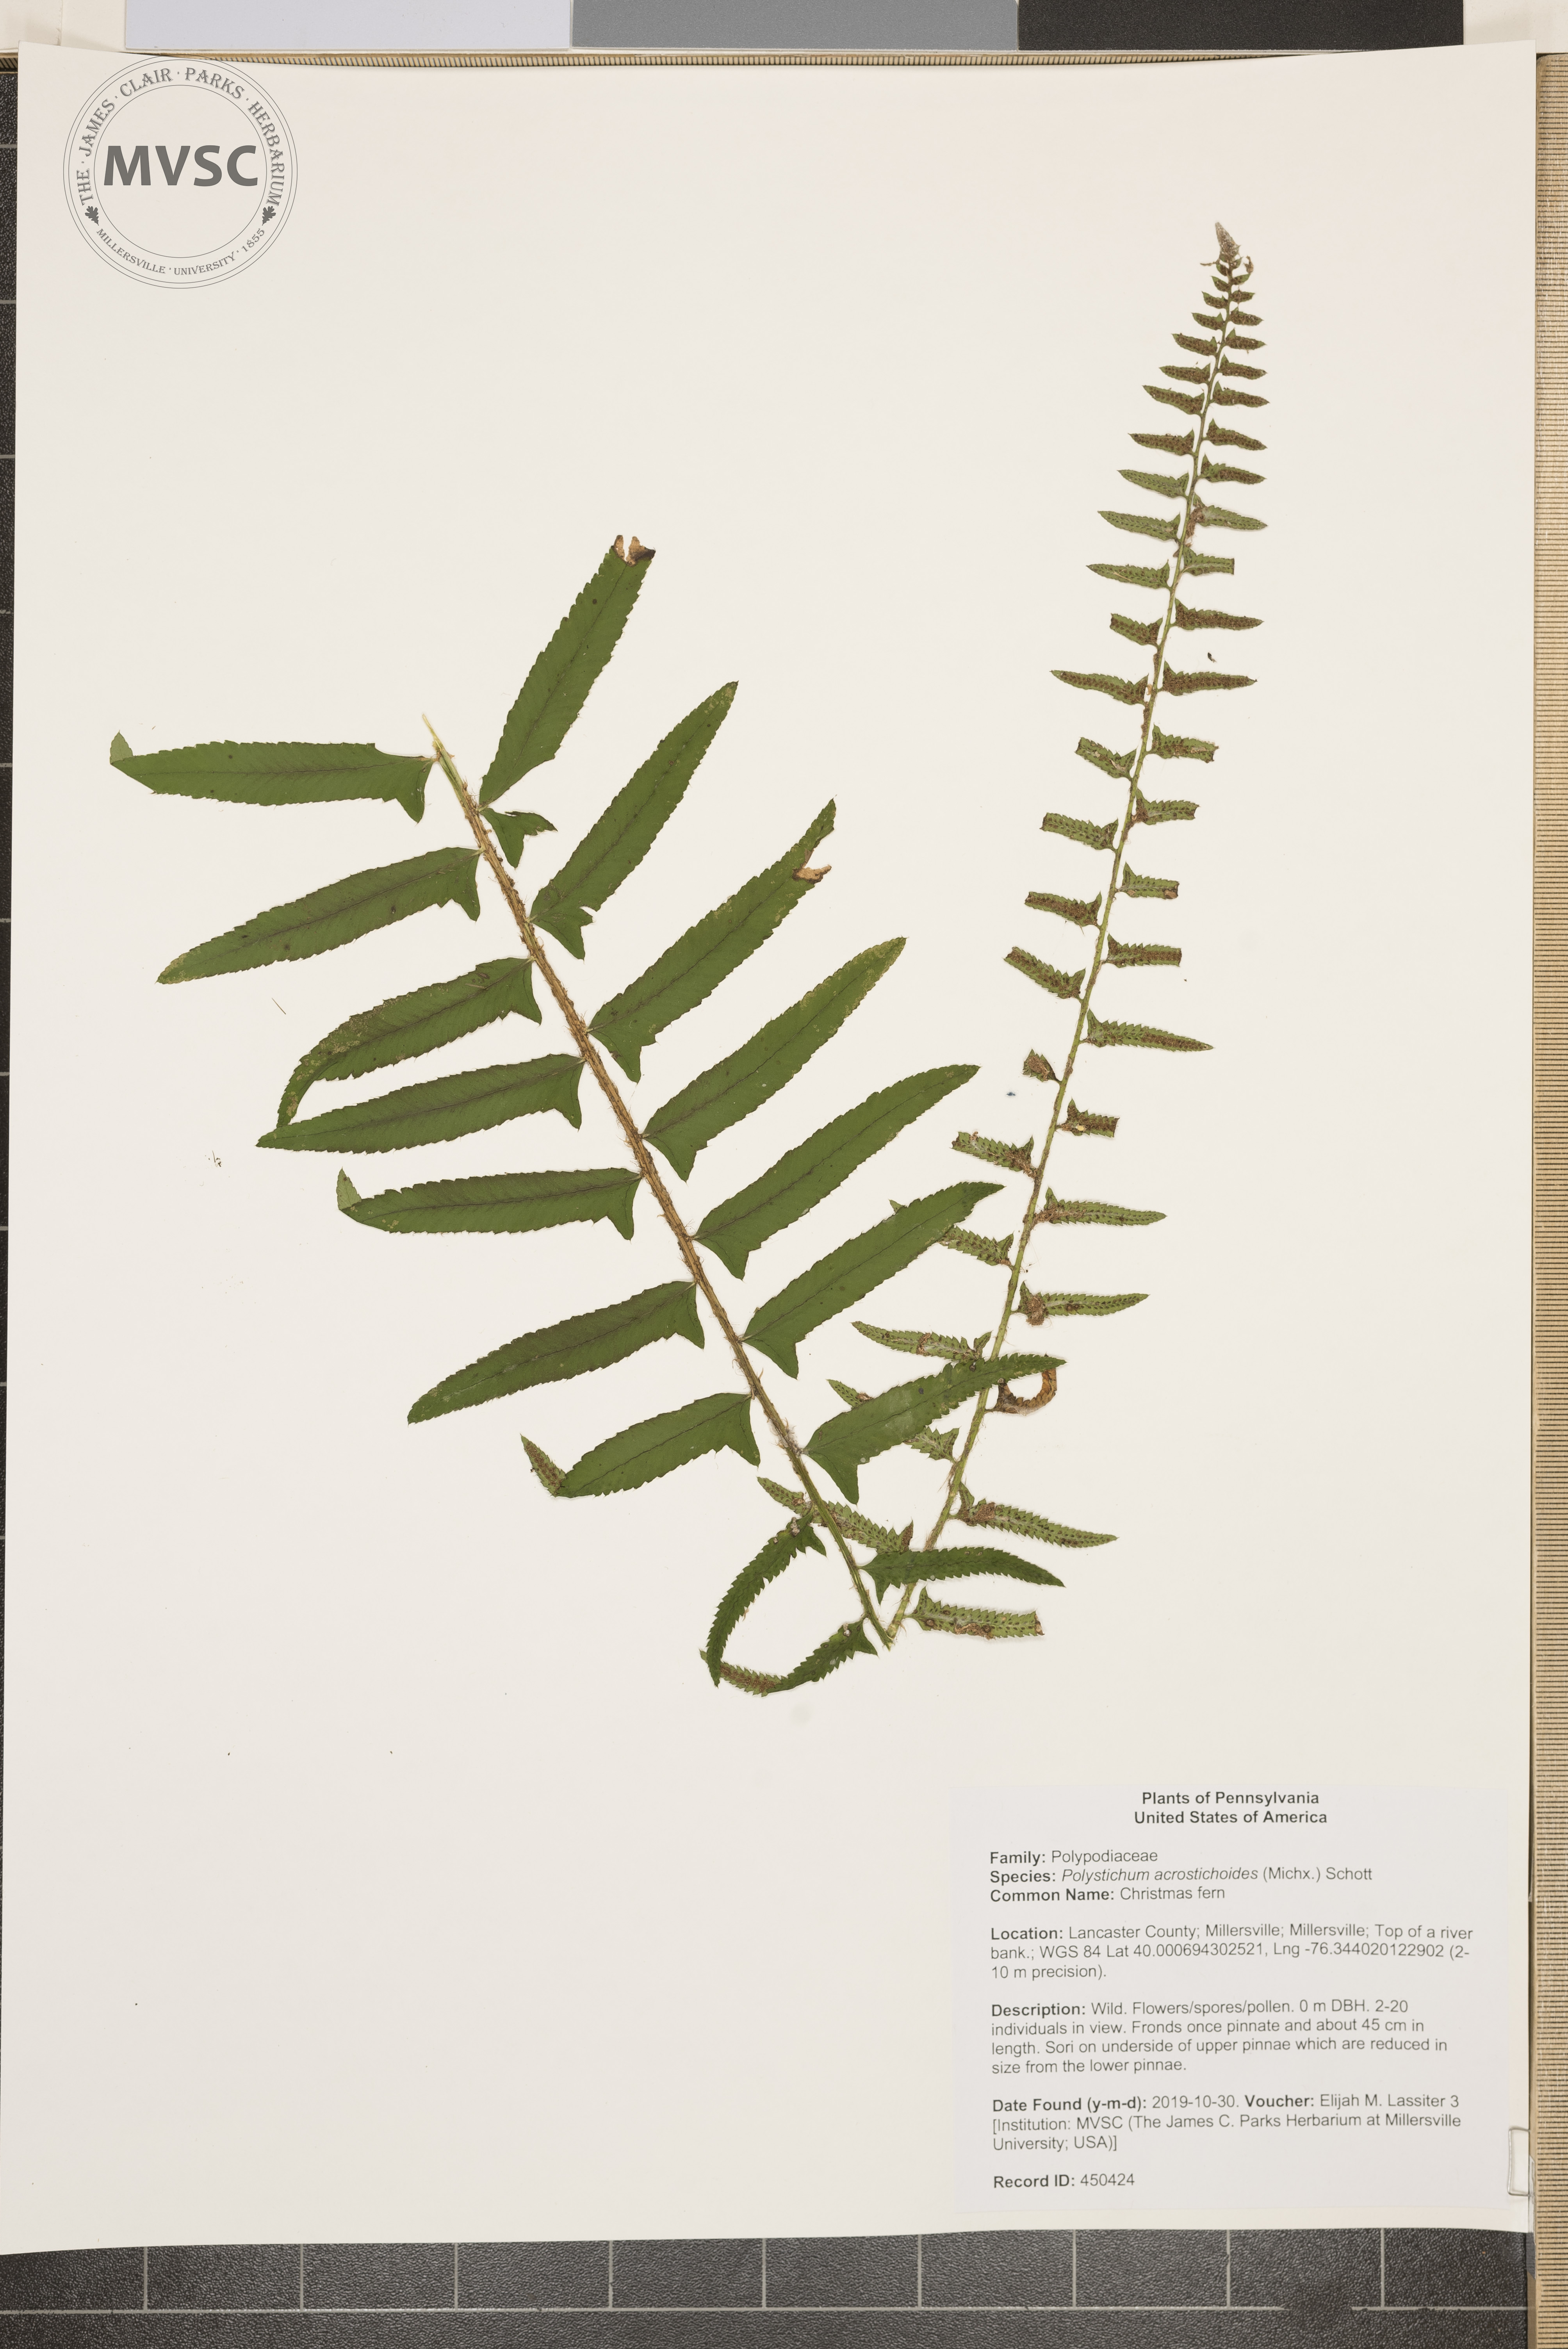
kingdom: Plantae
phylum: Tracheophyta
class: Polypodiopsida
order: Polypodiales
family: Dryopteridaceae
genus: Polystichum
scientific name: Polystichum acrostichoides
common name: Christmas fern
